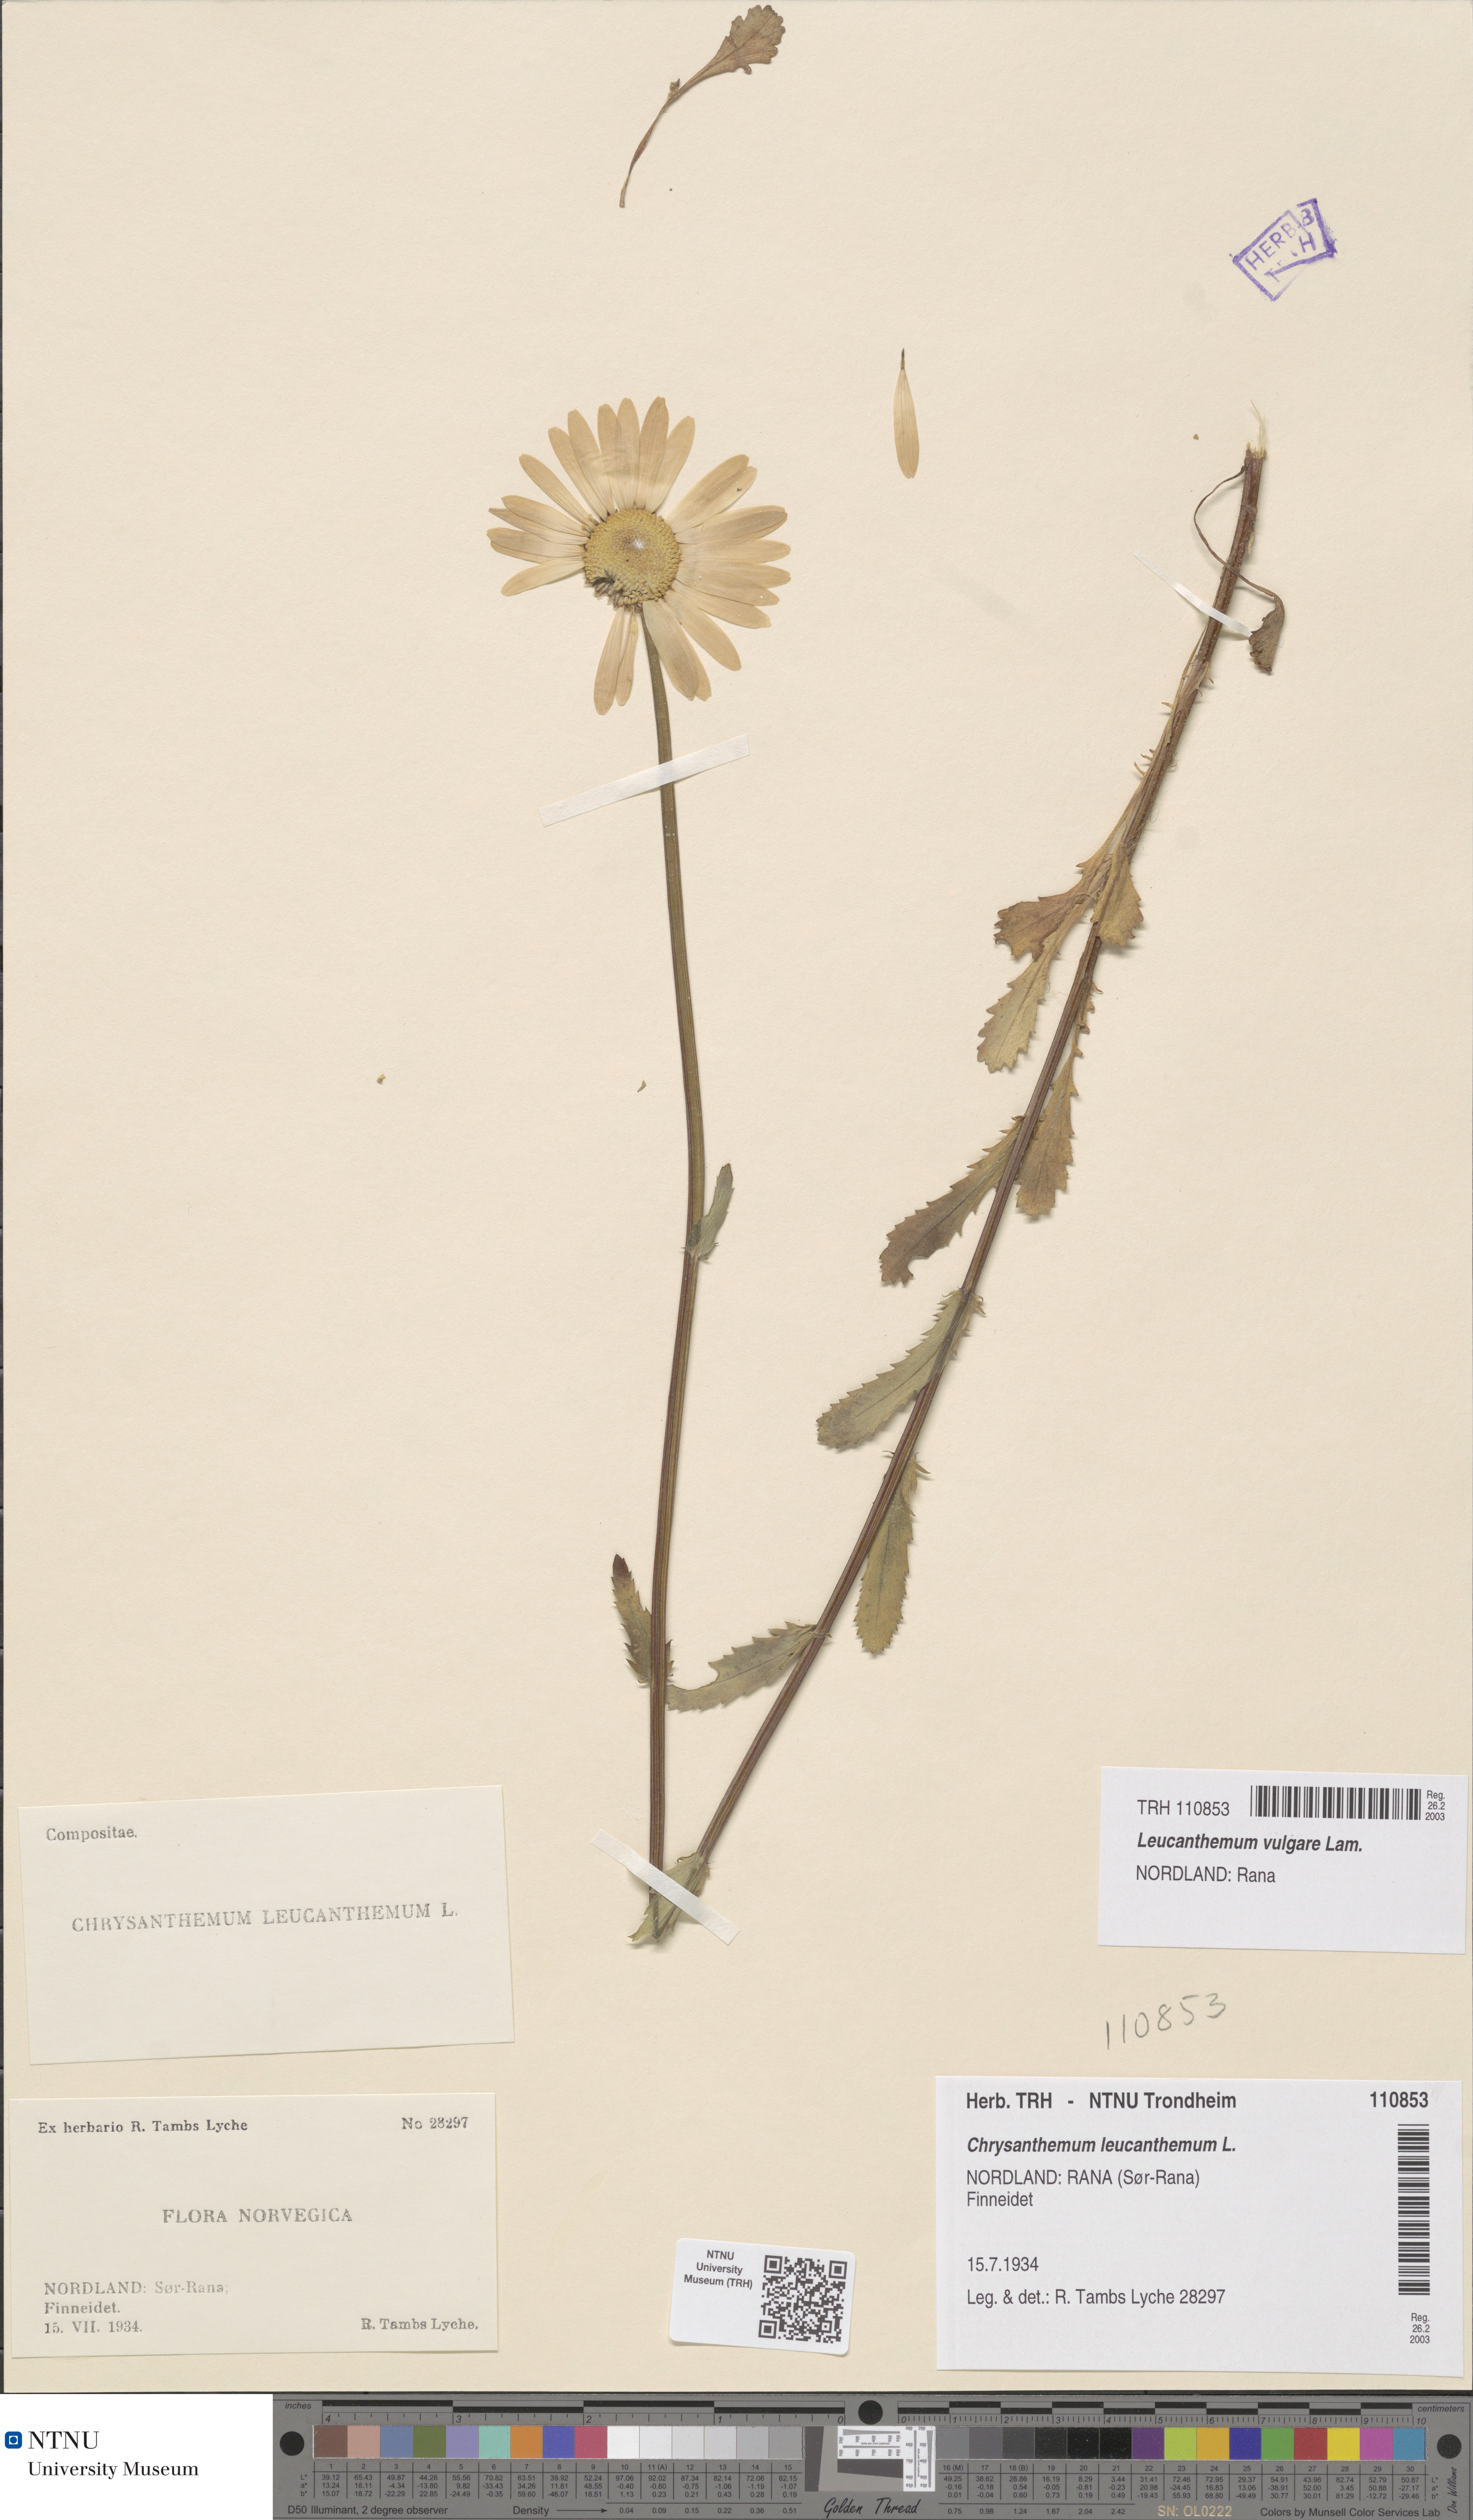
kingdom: Plantae
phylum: Tracheophyta
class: Magnoliopsida
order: Asterales
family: Asteraceae
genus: Leucanthemum
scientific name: Leucanthemum vulgare
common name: Oxeye daisy
